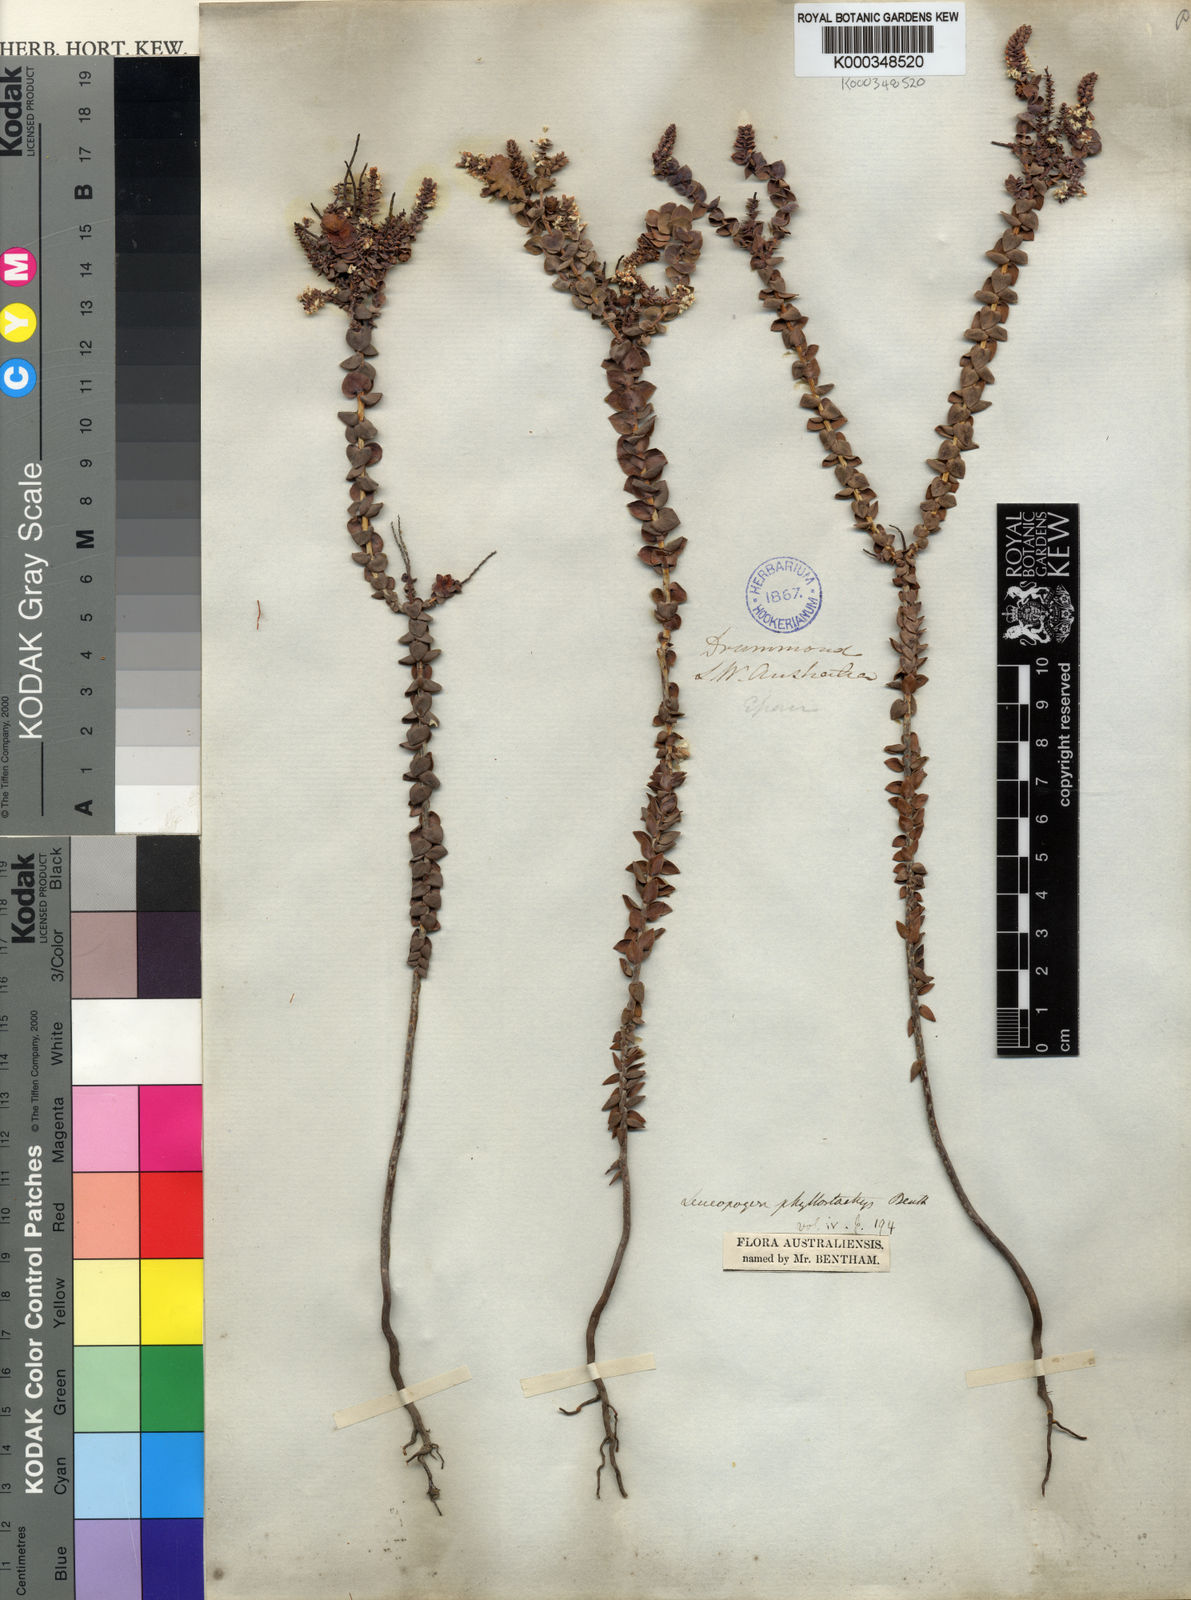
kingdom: Plantae
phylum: Tracheophyta
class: Magnoliopsida
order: Ericales
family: Ericaceae
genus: Leucopogon
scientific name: Leucopogon phyllostachys
